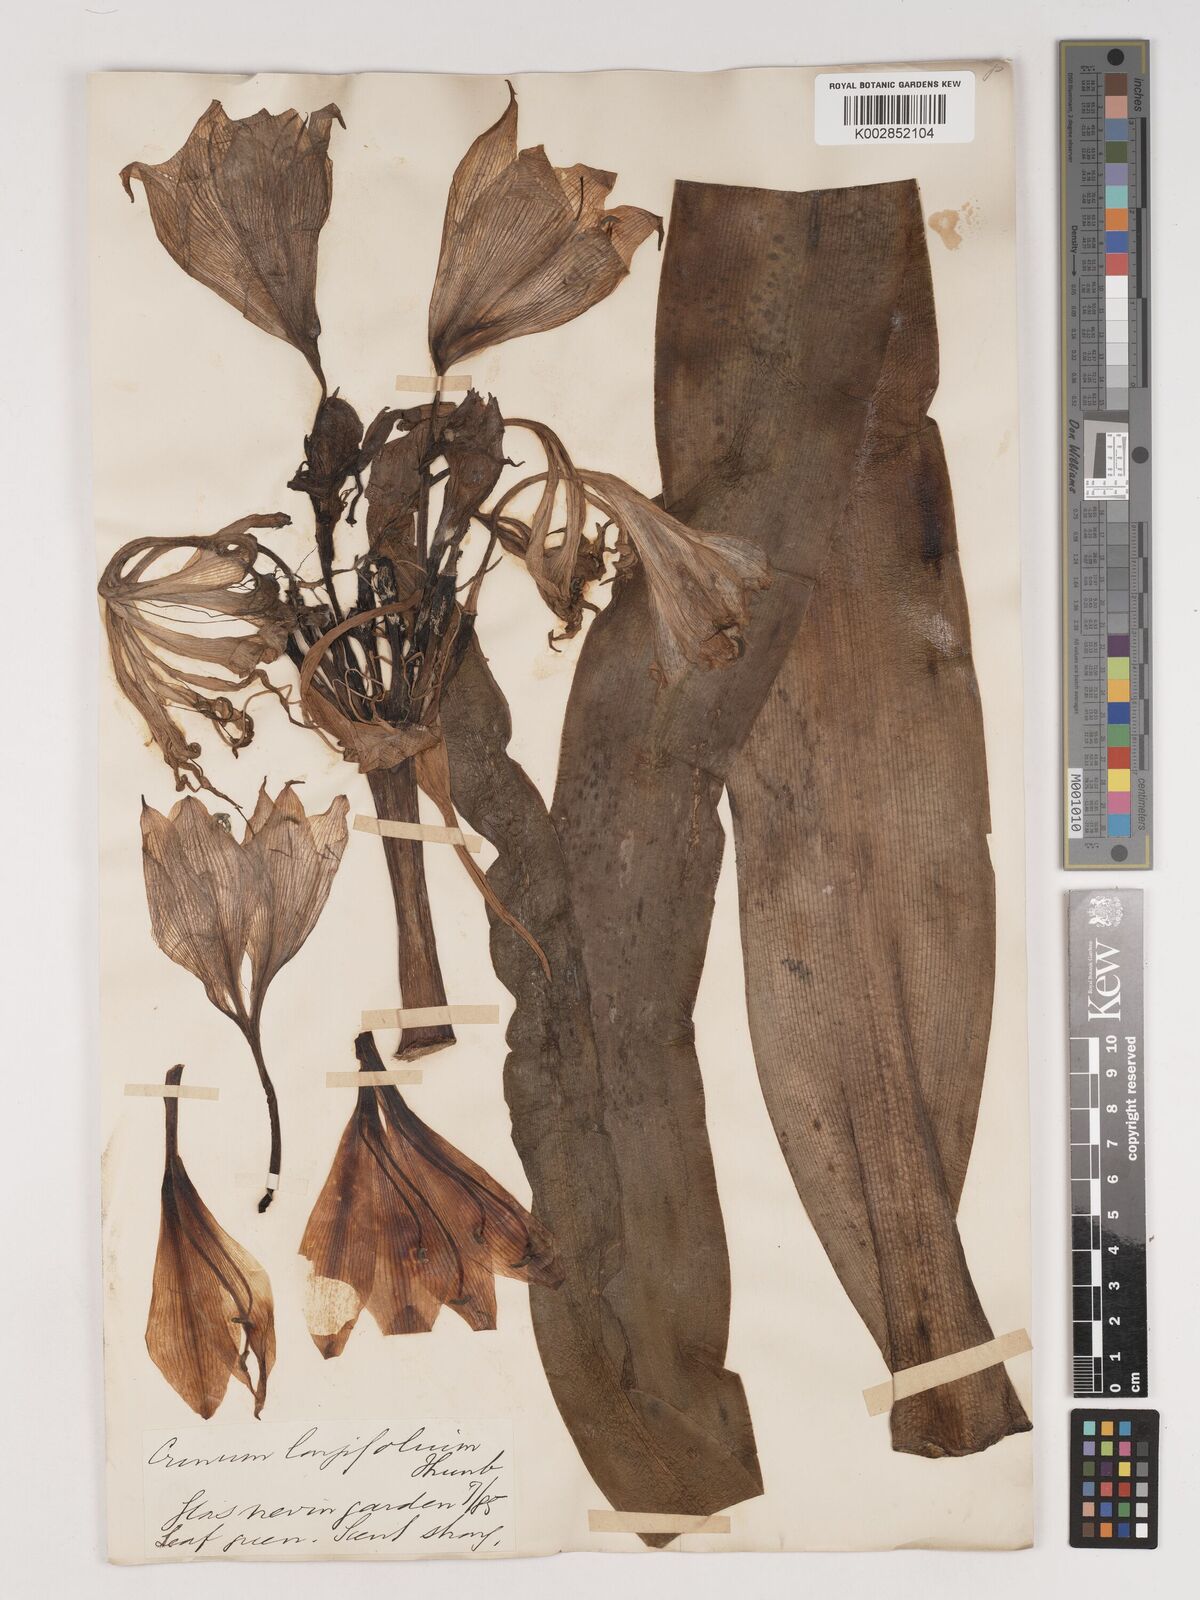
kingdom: Plantae
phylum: Tracheophyta
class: Liliopsida
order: Asparagales
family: Amaryllidaceae
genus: Crinum
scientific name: Crinum bulbispermum
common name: Hardy swamplily
